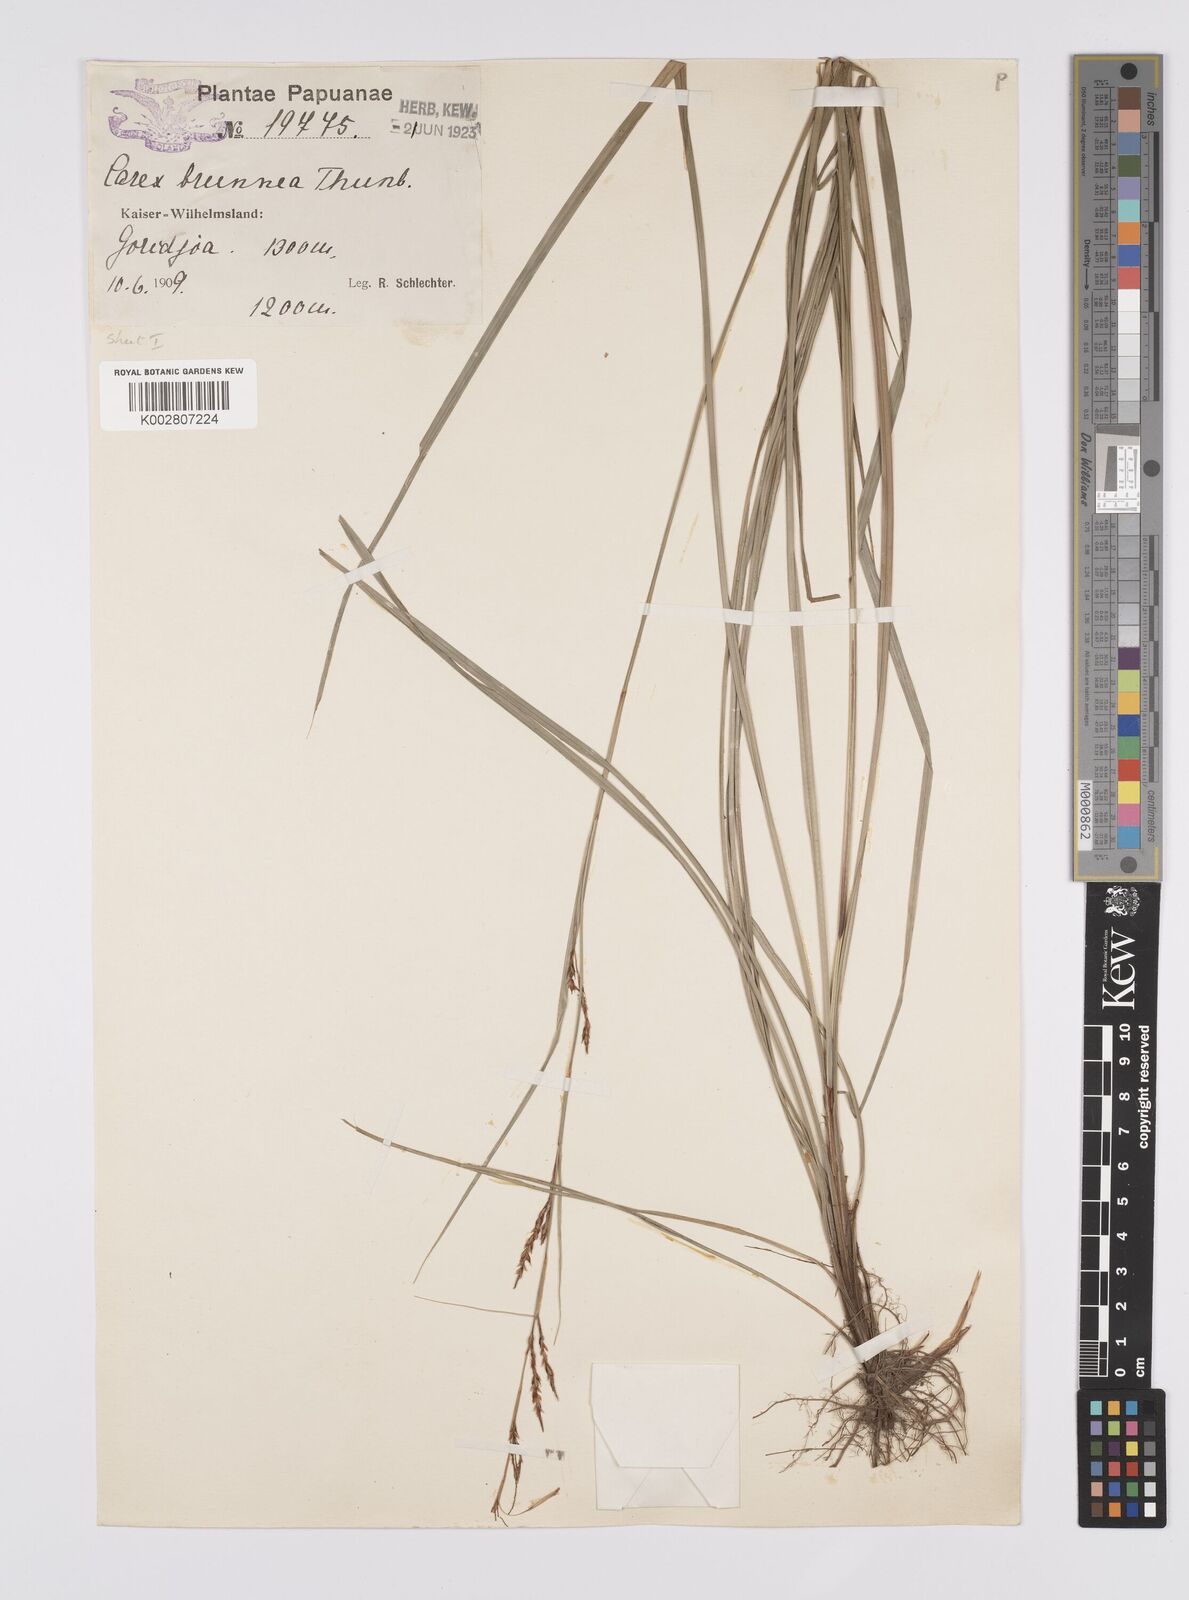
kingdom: Plantae
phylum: Tracheophyta
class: Liliopsida
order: Poales
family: Cyperaceae
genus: Carex
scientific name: Carex brunnea
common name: Greater brown sedge
